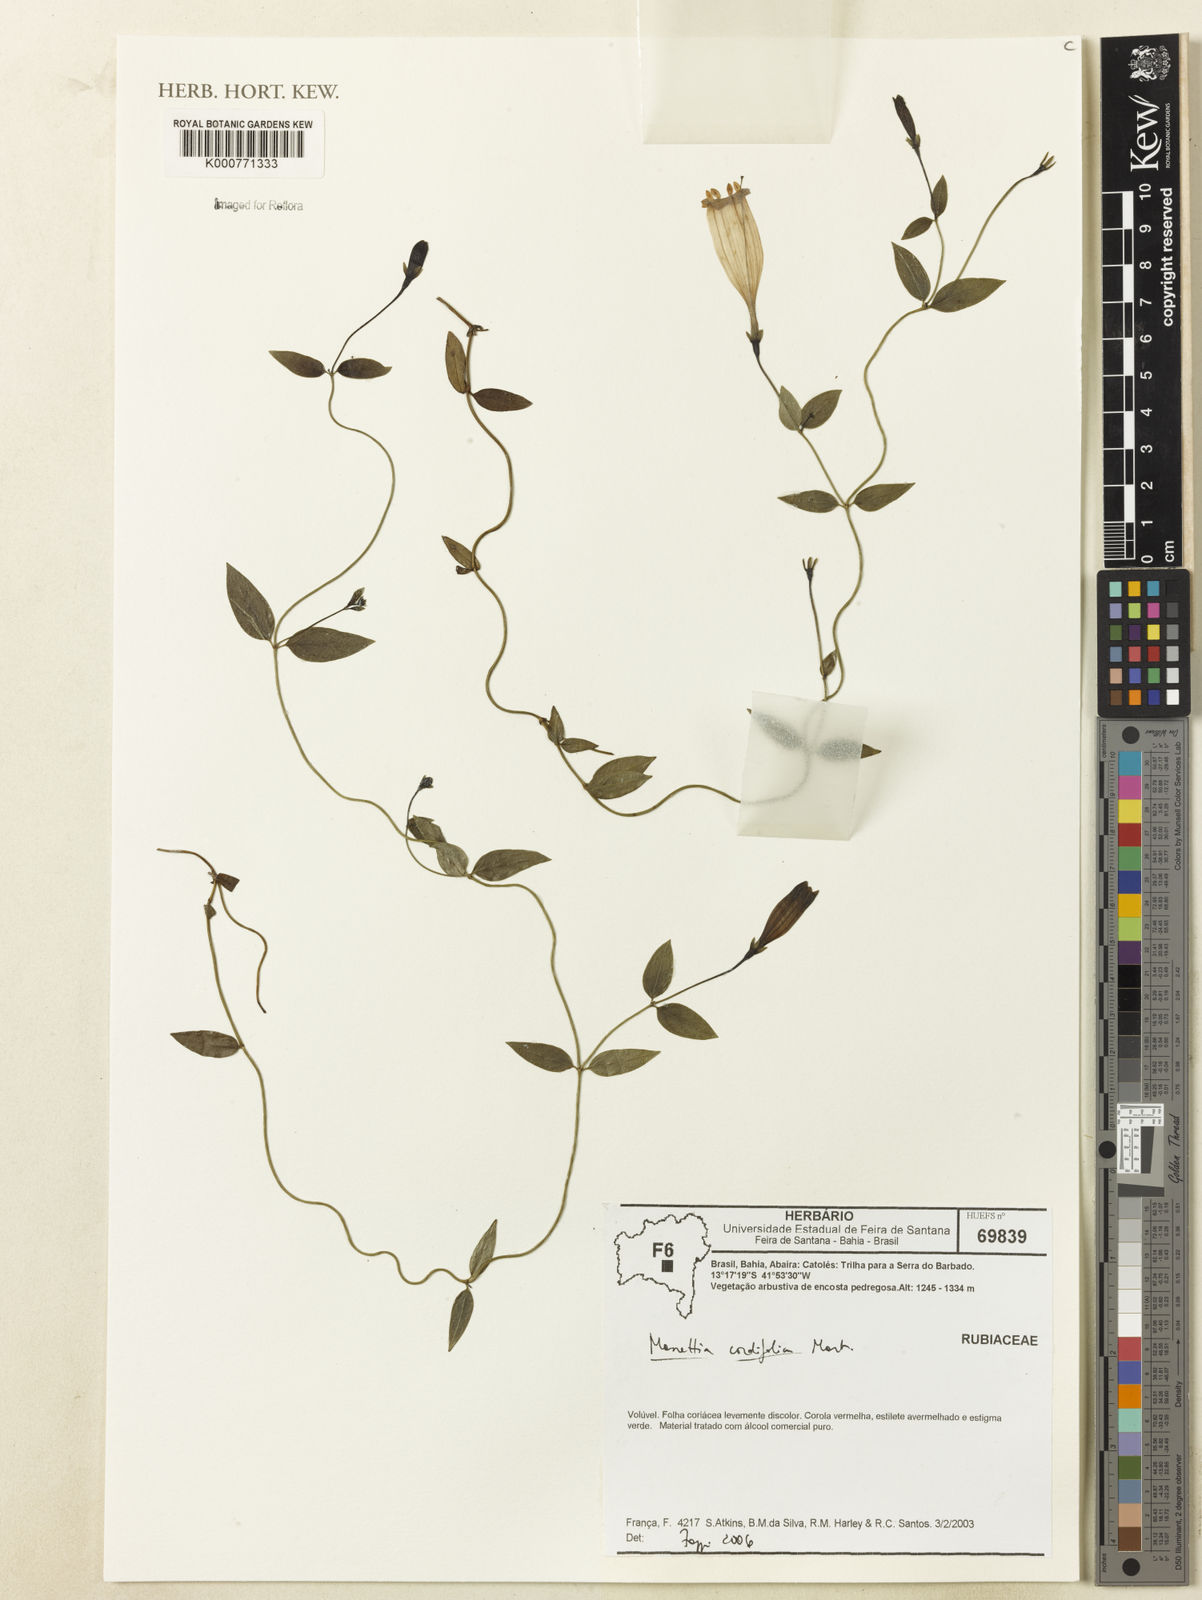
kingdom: Plantae
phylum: Tracheophyta
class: Magnoliopsida
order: Gentianales
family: Rubiaceae
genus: Manettia
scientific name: Manettia cordifolia
